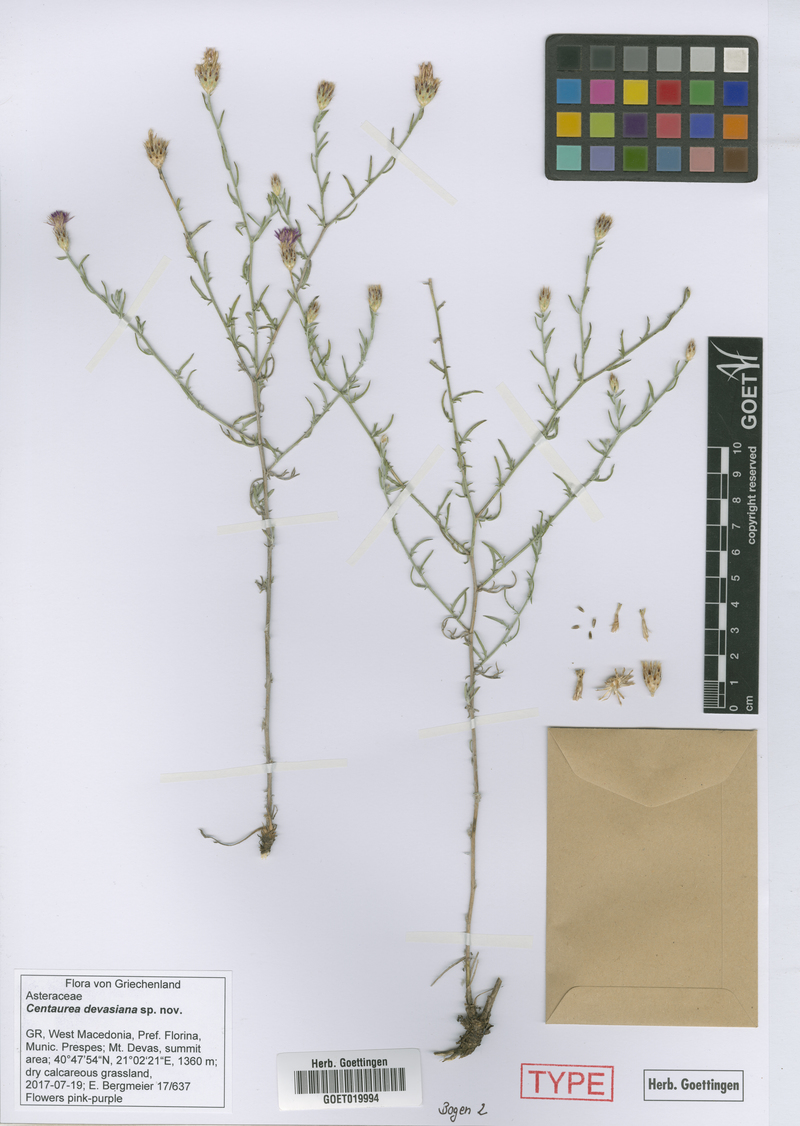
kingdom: Plantae
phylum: Tracheophyta
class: Magnoliopsida
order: Asterales
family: Asteraceae
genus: Centaurea
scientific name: Centaurea devasiana
